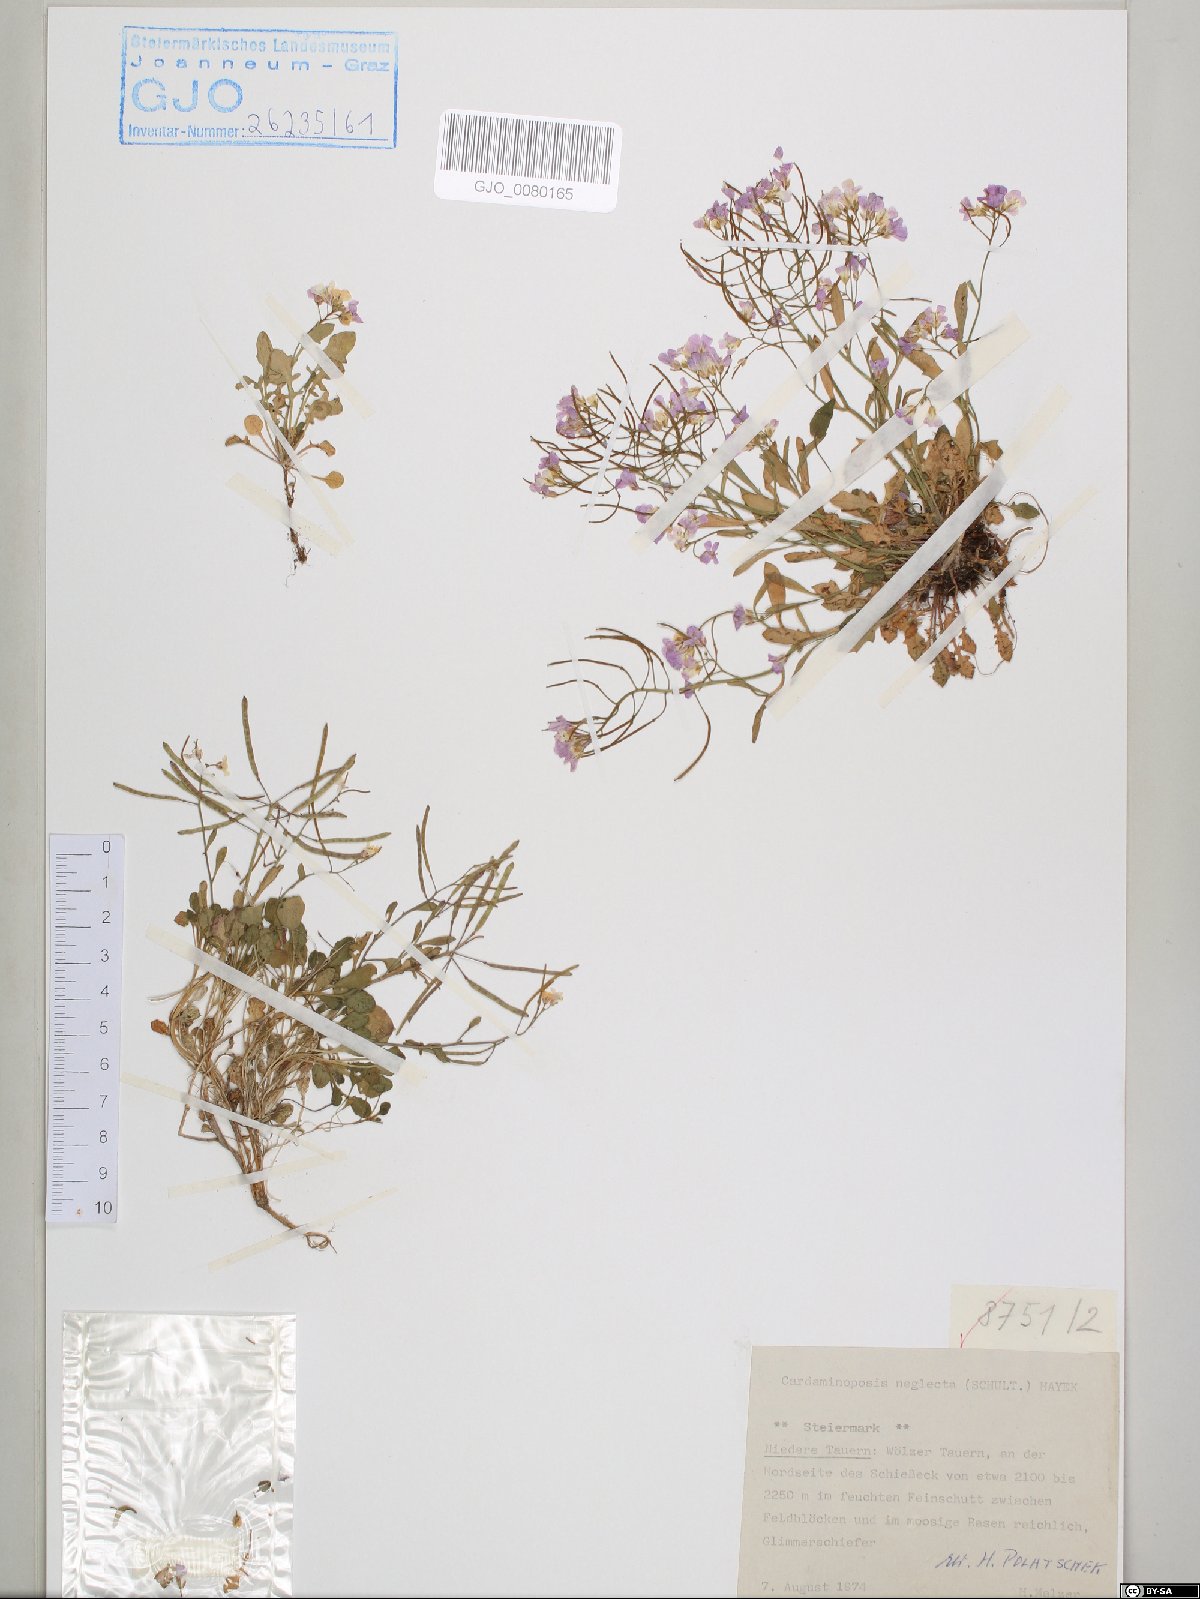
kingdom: Plantae
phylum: Tracheophyta
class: Magnoliopsida
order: Brassicales
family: Brassicaceae
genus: Arabidopsis
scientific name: Arabidopsis neglecta
